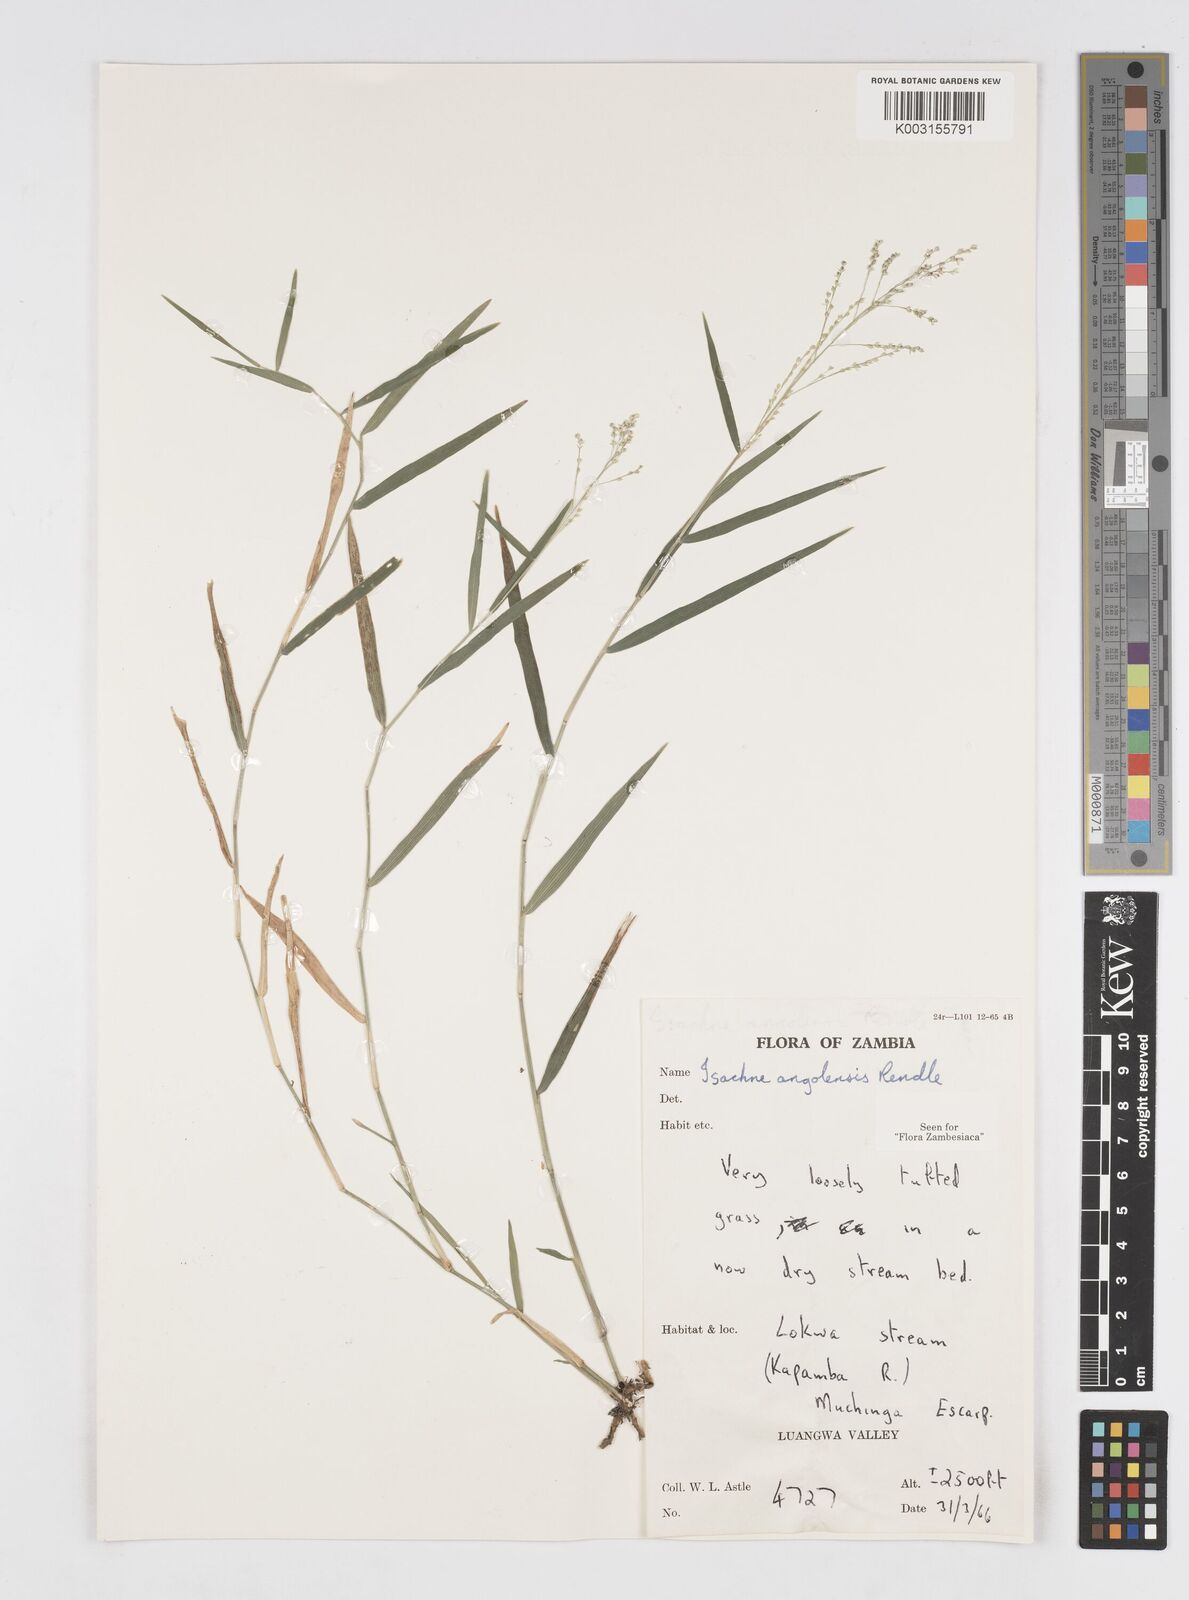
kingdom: Plantae
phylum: Tracheophyta
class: Liliopsida
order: Poales
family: Poaceae
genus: Isachne
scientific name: Isachne angolensis
